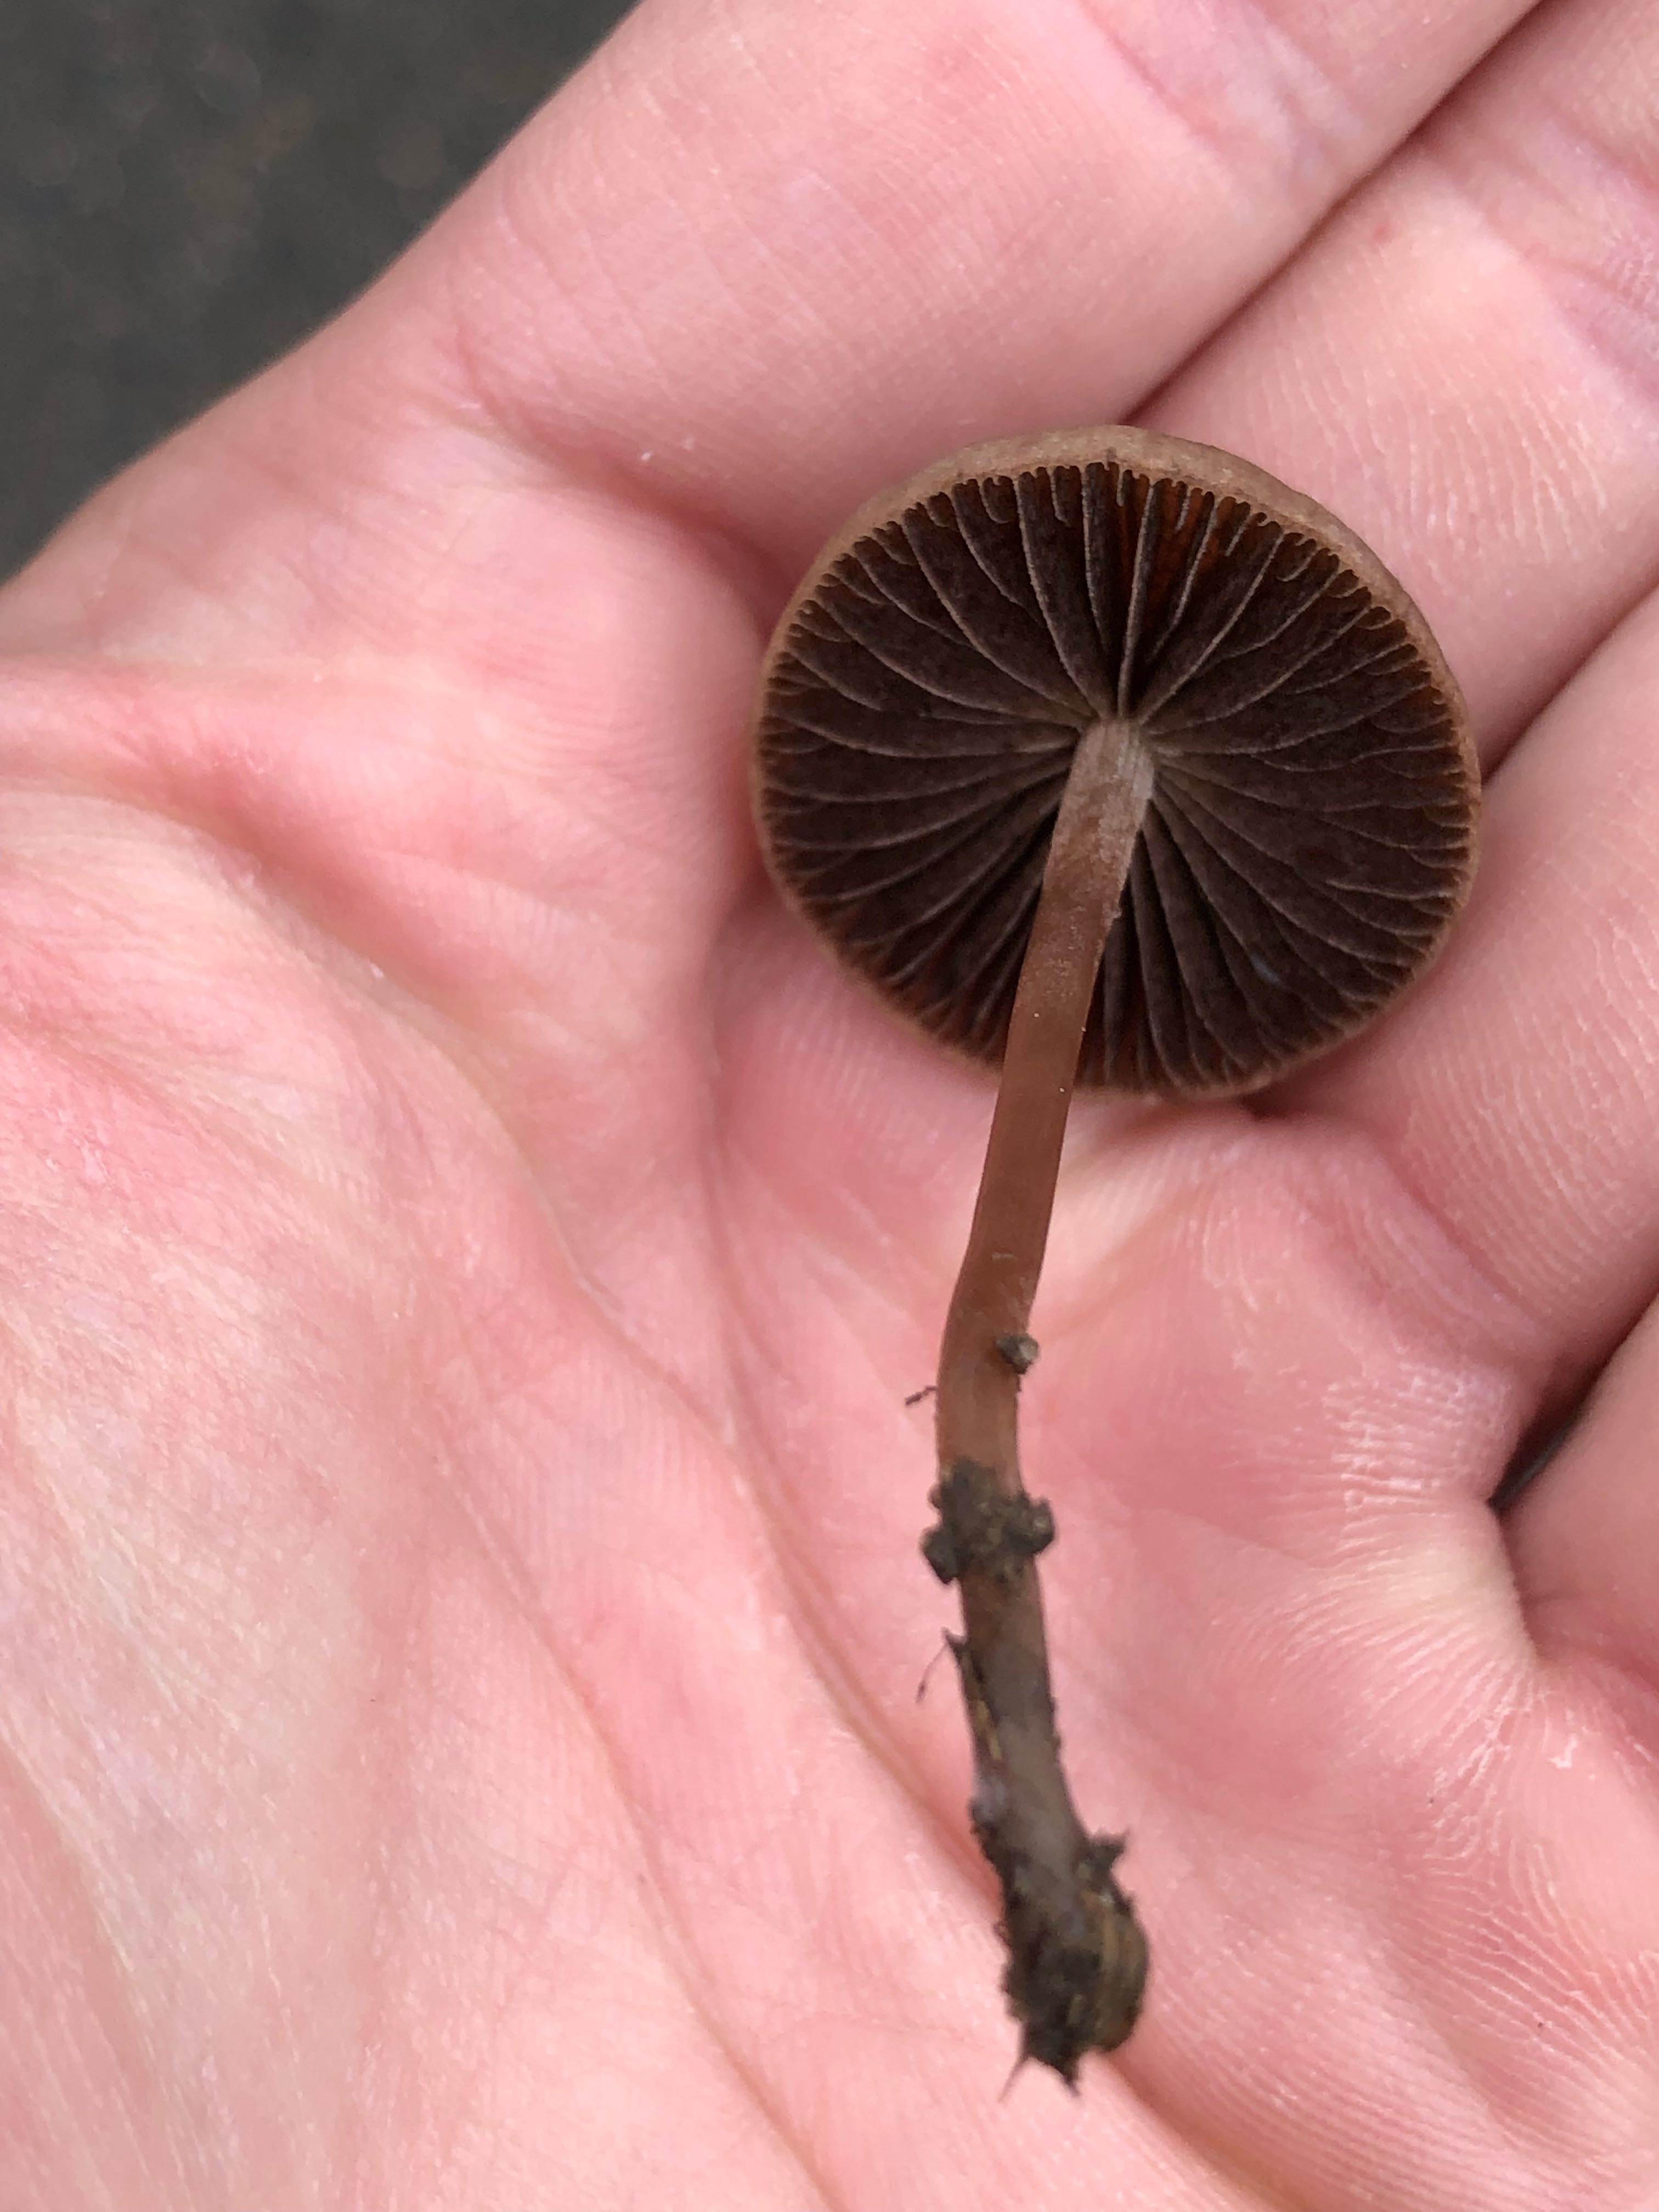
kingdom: Fungi
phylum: Basidiomycota
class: Agaricomycetes
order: Agaricales
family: Bolbitiaceae
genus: Panaeolina
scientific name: Panaeolina foenisecii
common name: høslætsvamp
